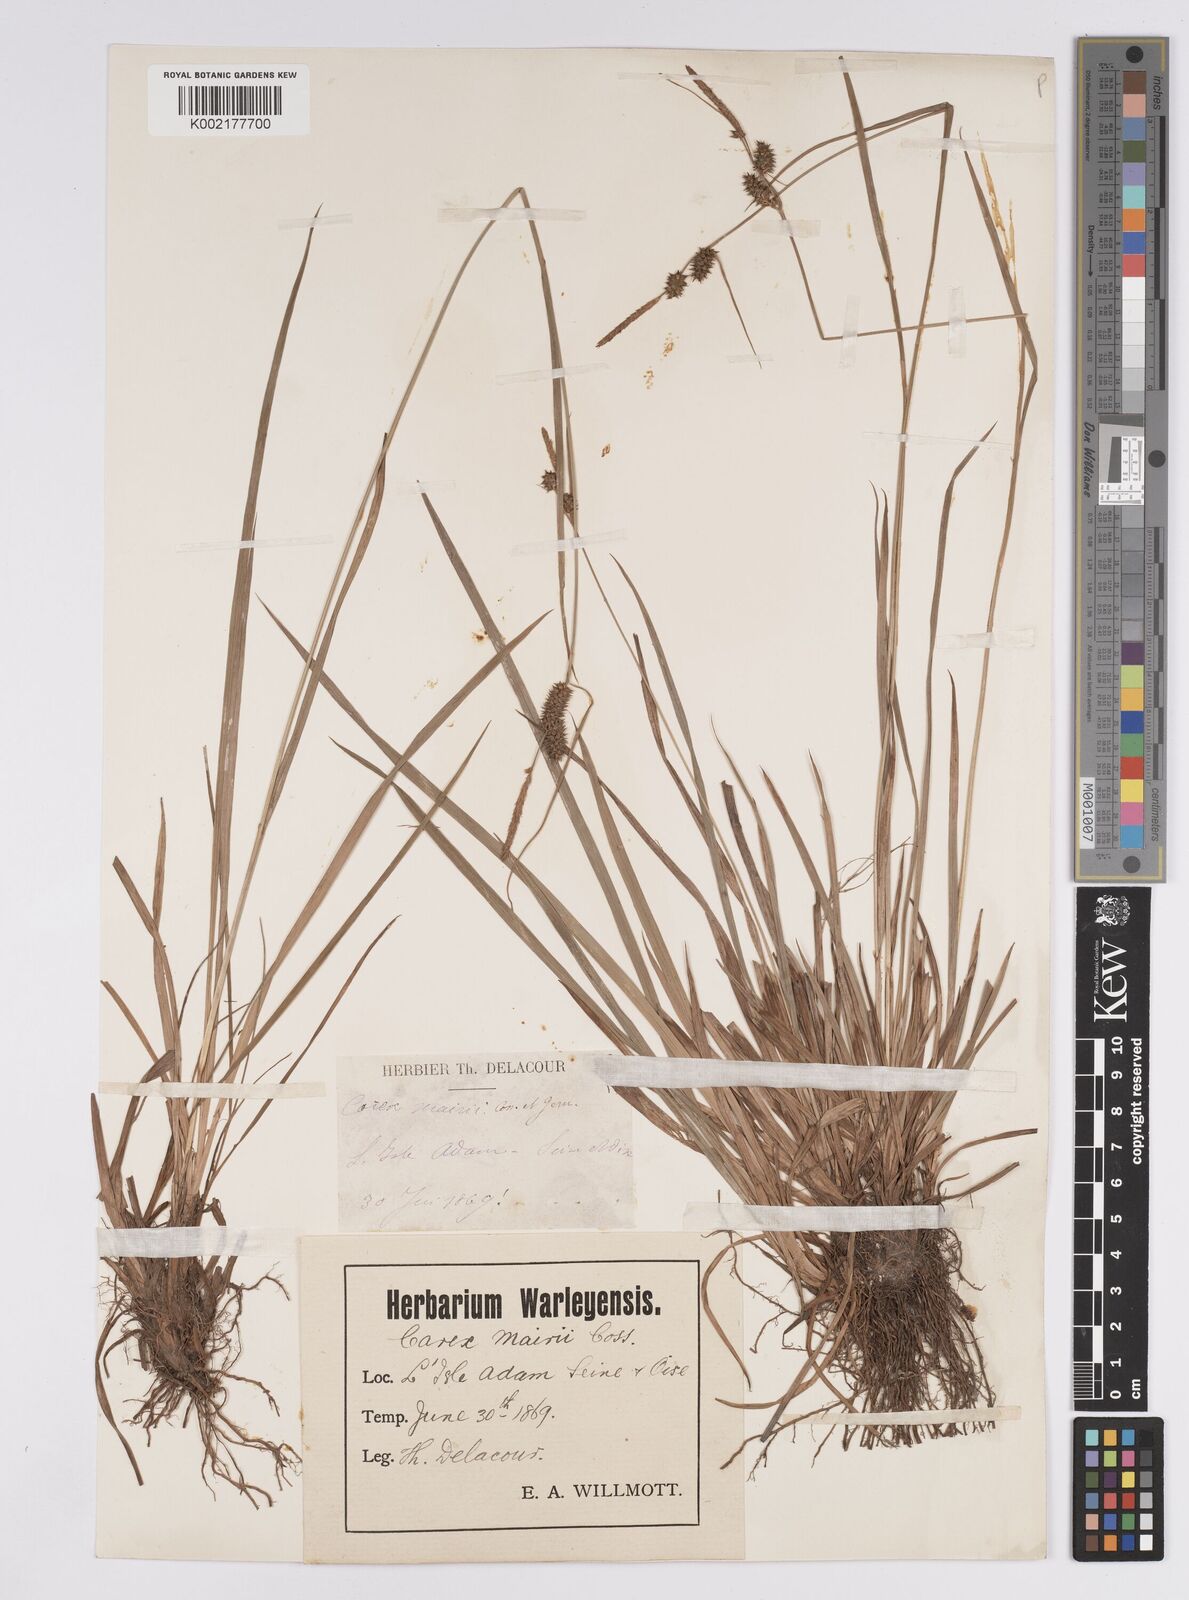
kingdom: Plantae
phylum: Tracheophyta
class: Liliopsida
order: Poales
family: Cyperaceae
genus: Carex
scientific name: Carex mairei
